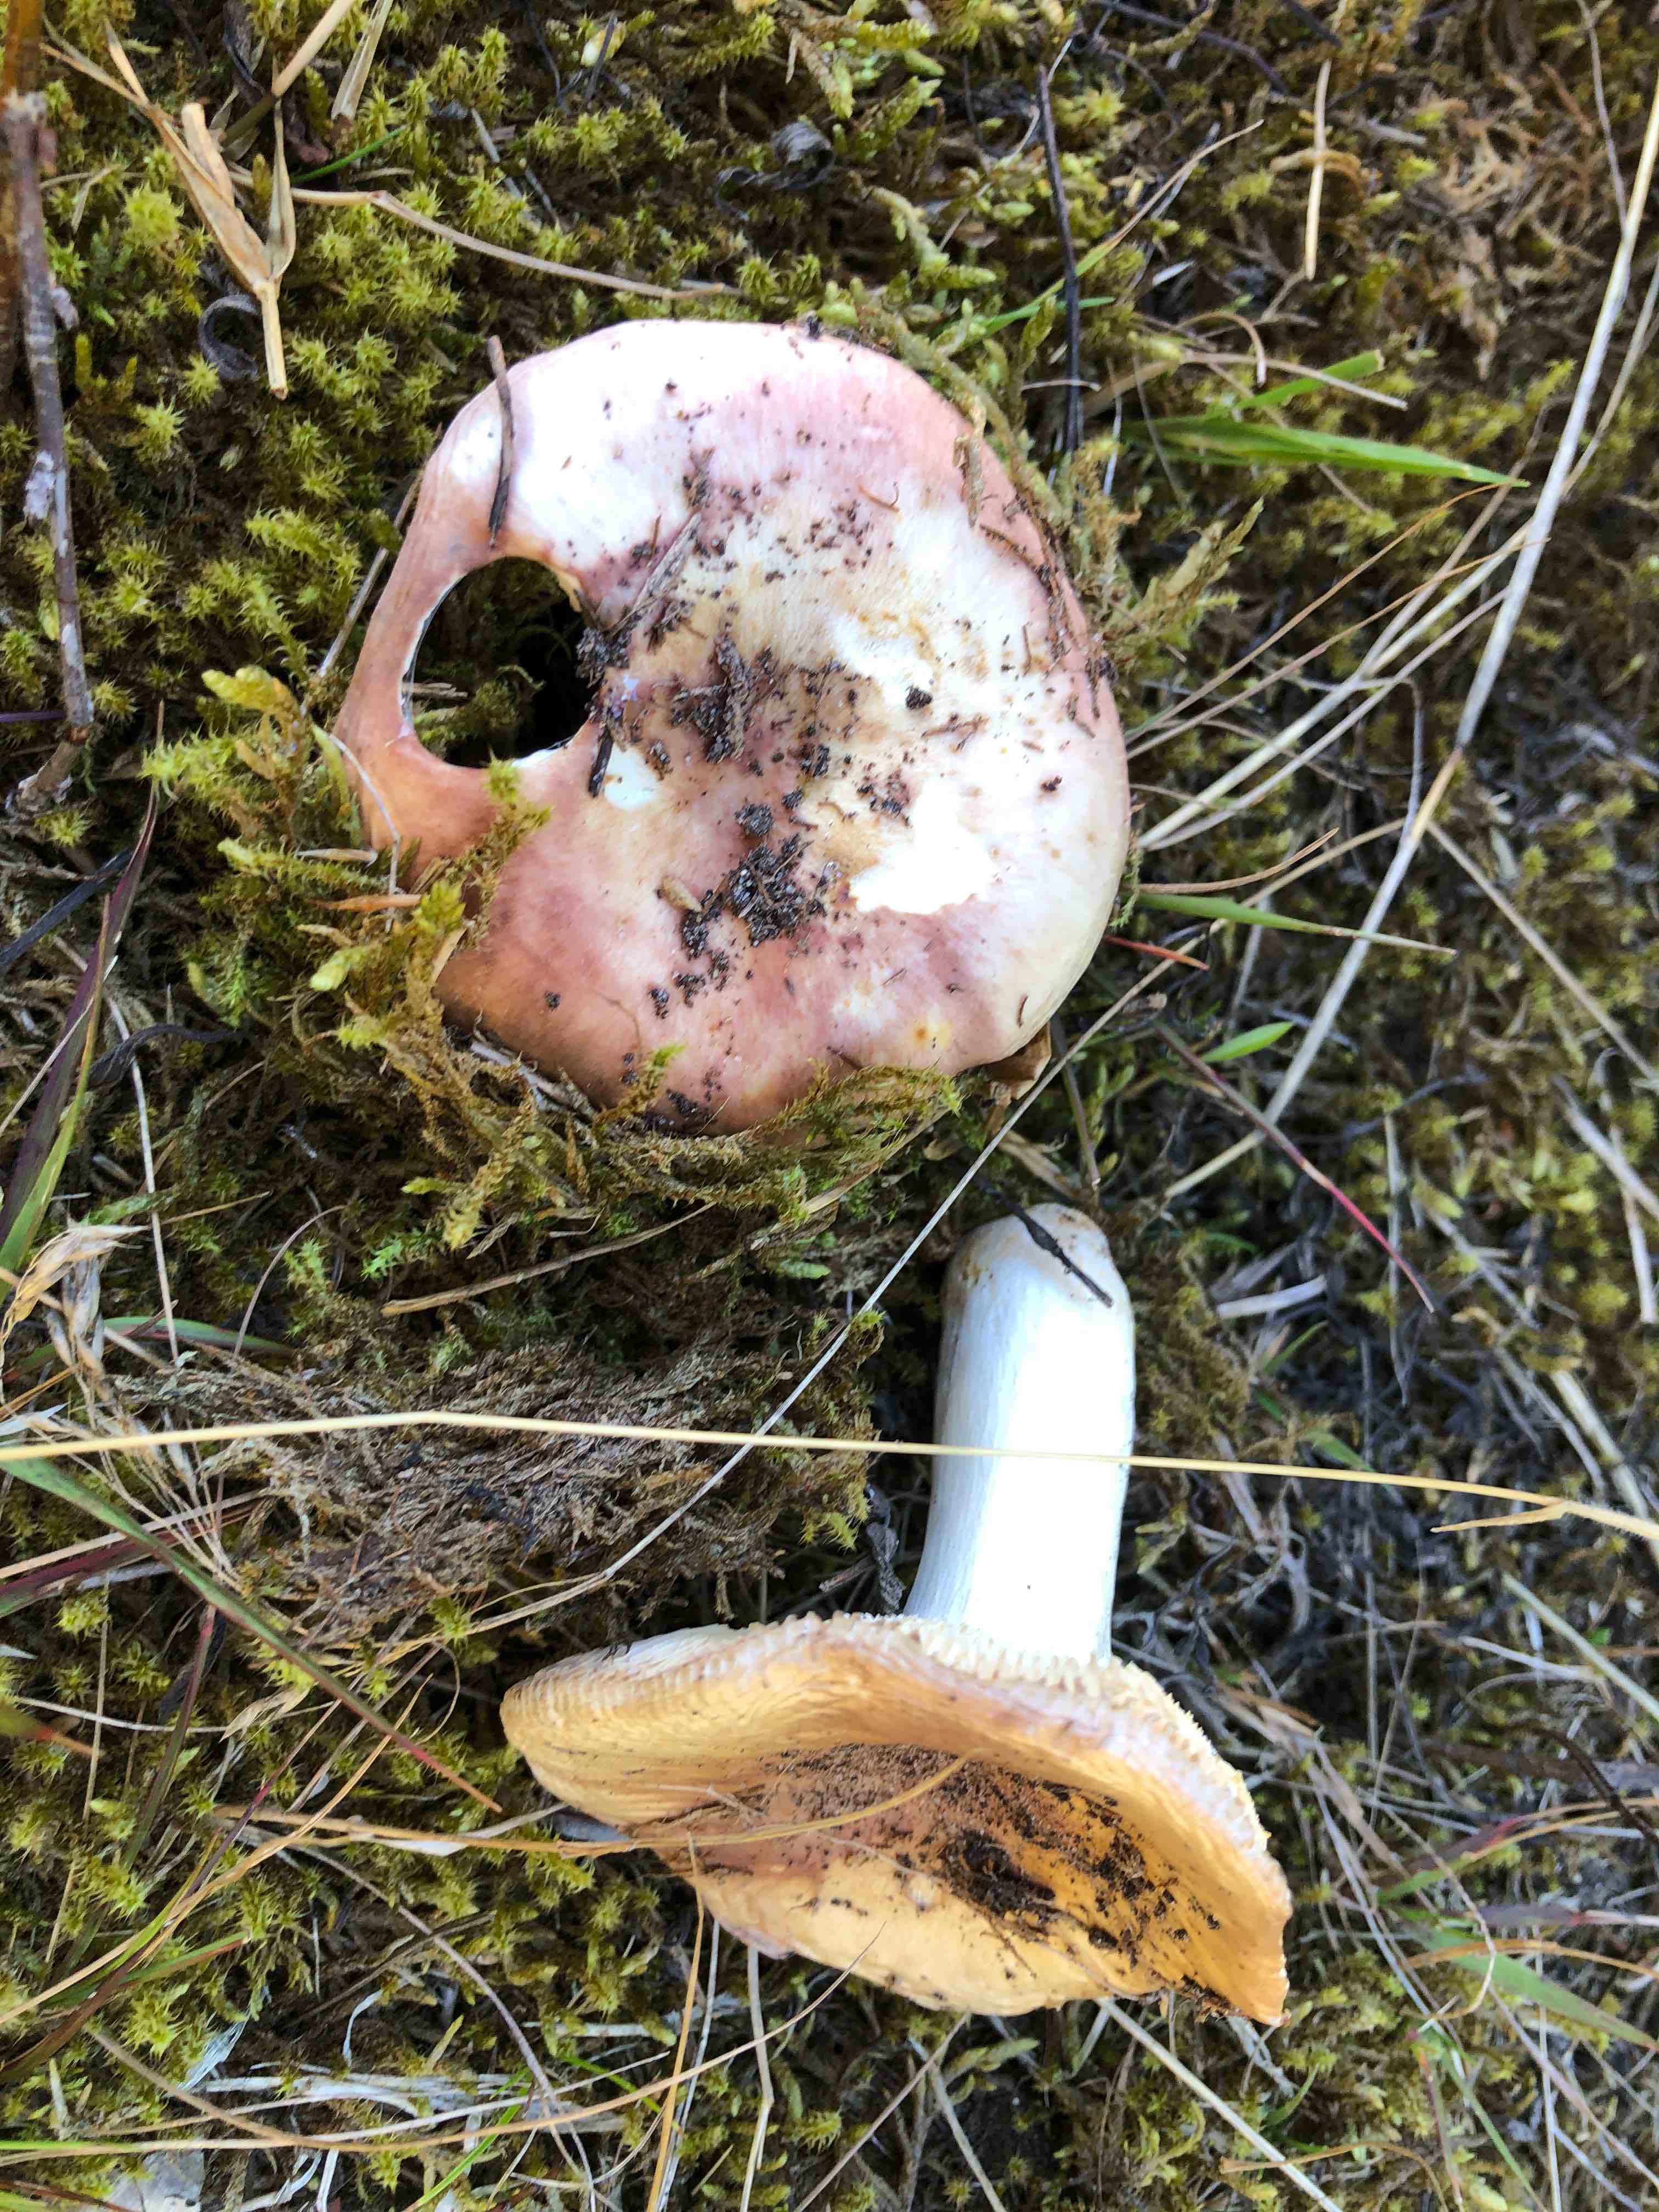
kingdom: Fungi
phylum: Basidiomycota
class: Agaricomycetes
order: Russulales
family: Russulaceae
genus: Russula
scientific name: Russula
